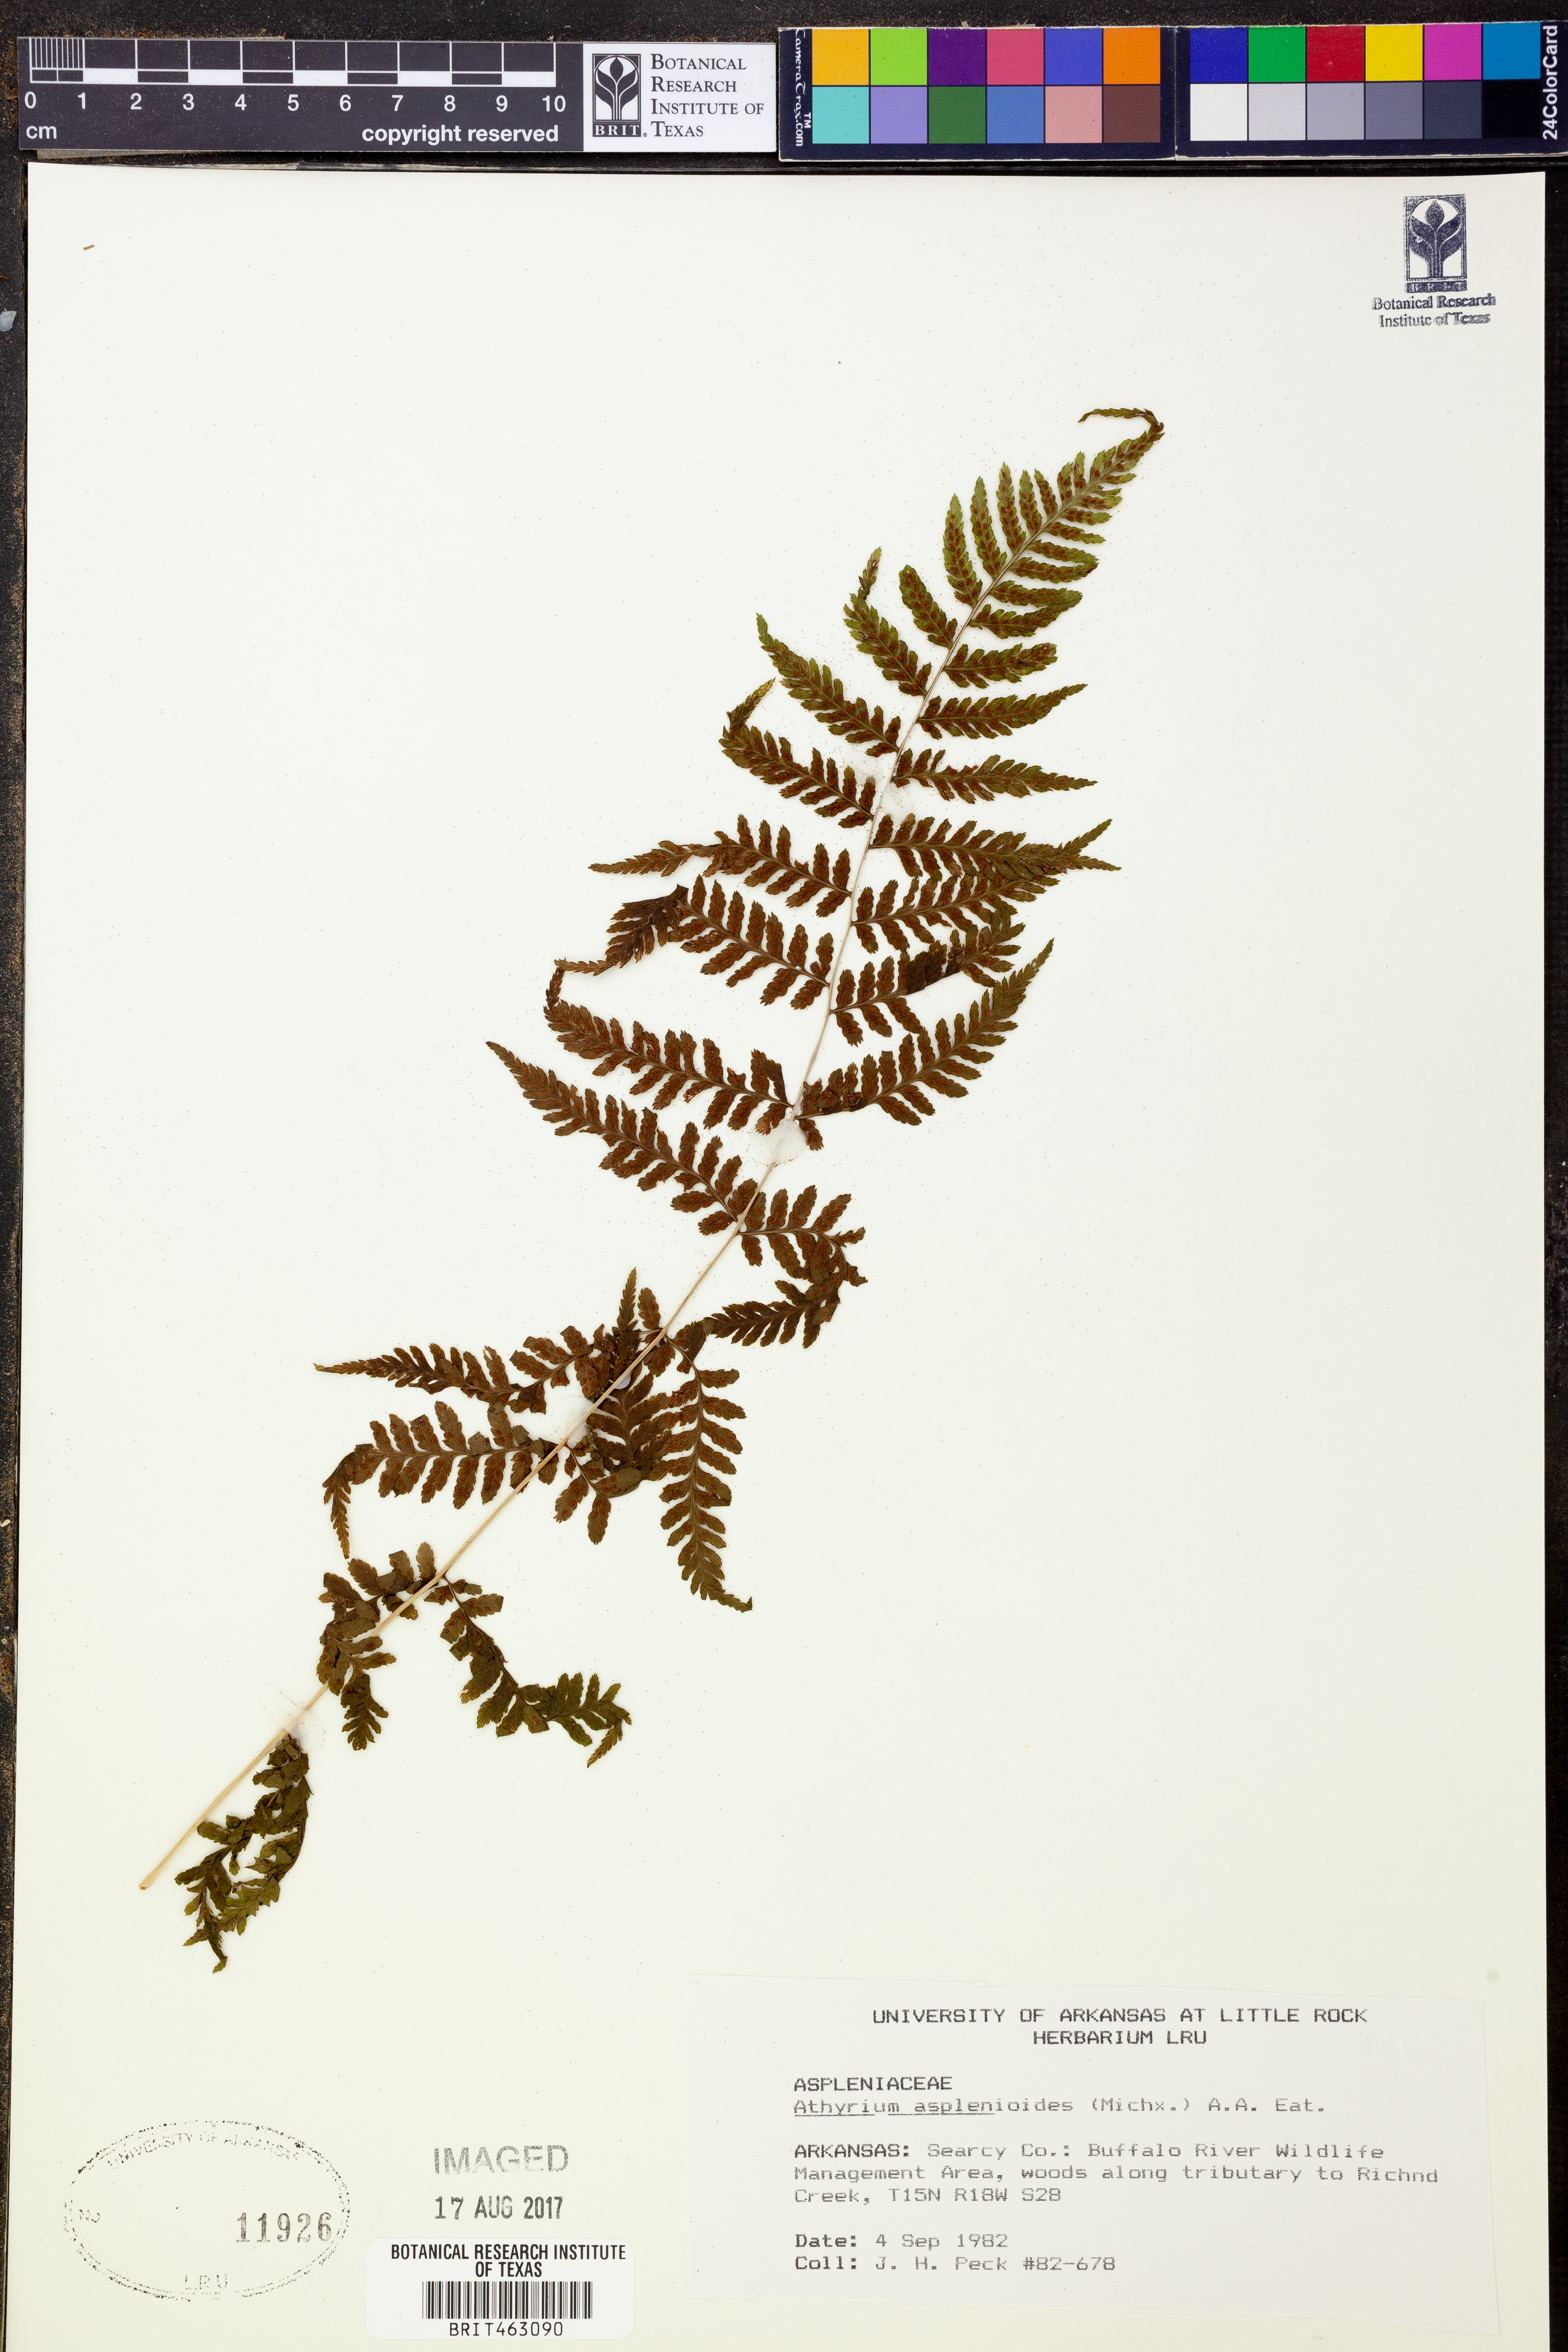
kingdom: Plantae
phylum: Tracheophyta
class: Polypodiopsida
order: Polypodiales
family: Athyriaceae
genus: Athyrium
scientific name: Athyrium asplenioides
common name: Southern lady fern
